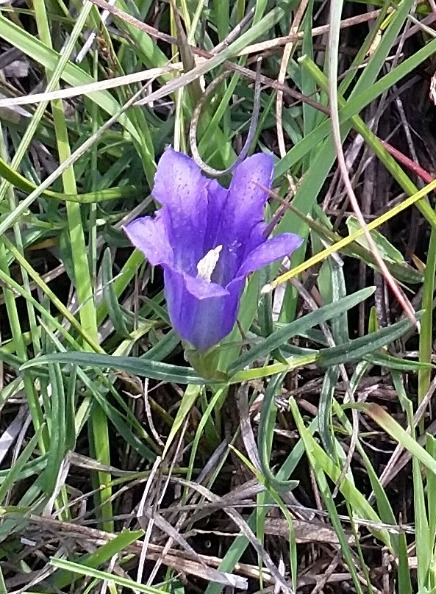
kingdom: Plantae
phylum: Tracheophyta
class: Magnoliopsida
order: Gentianales
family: Gentianaceae
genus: Gentiana
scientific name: Gentiana pneumonanthe
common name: Klokke-ensian
